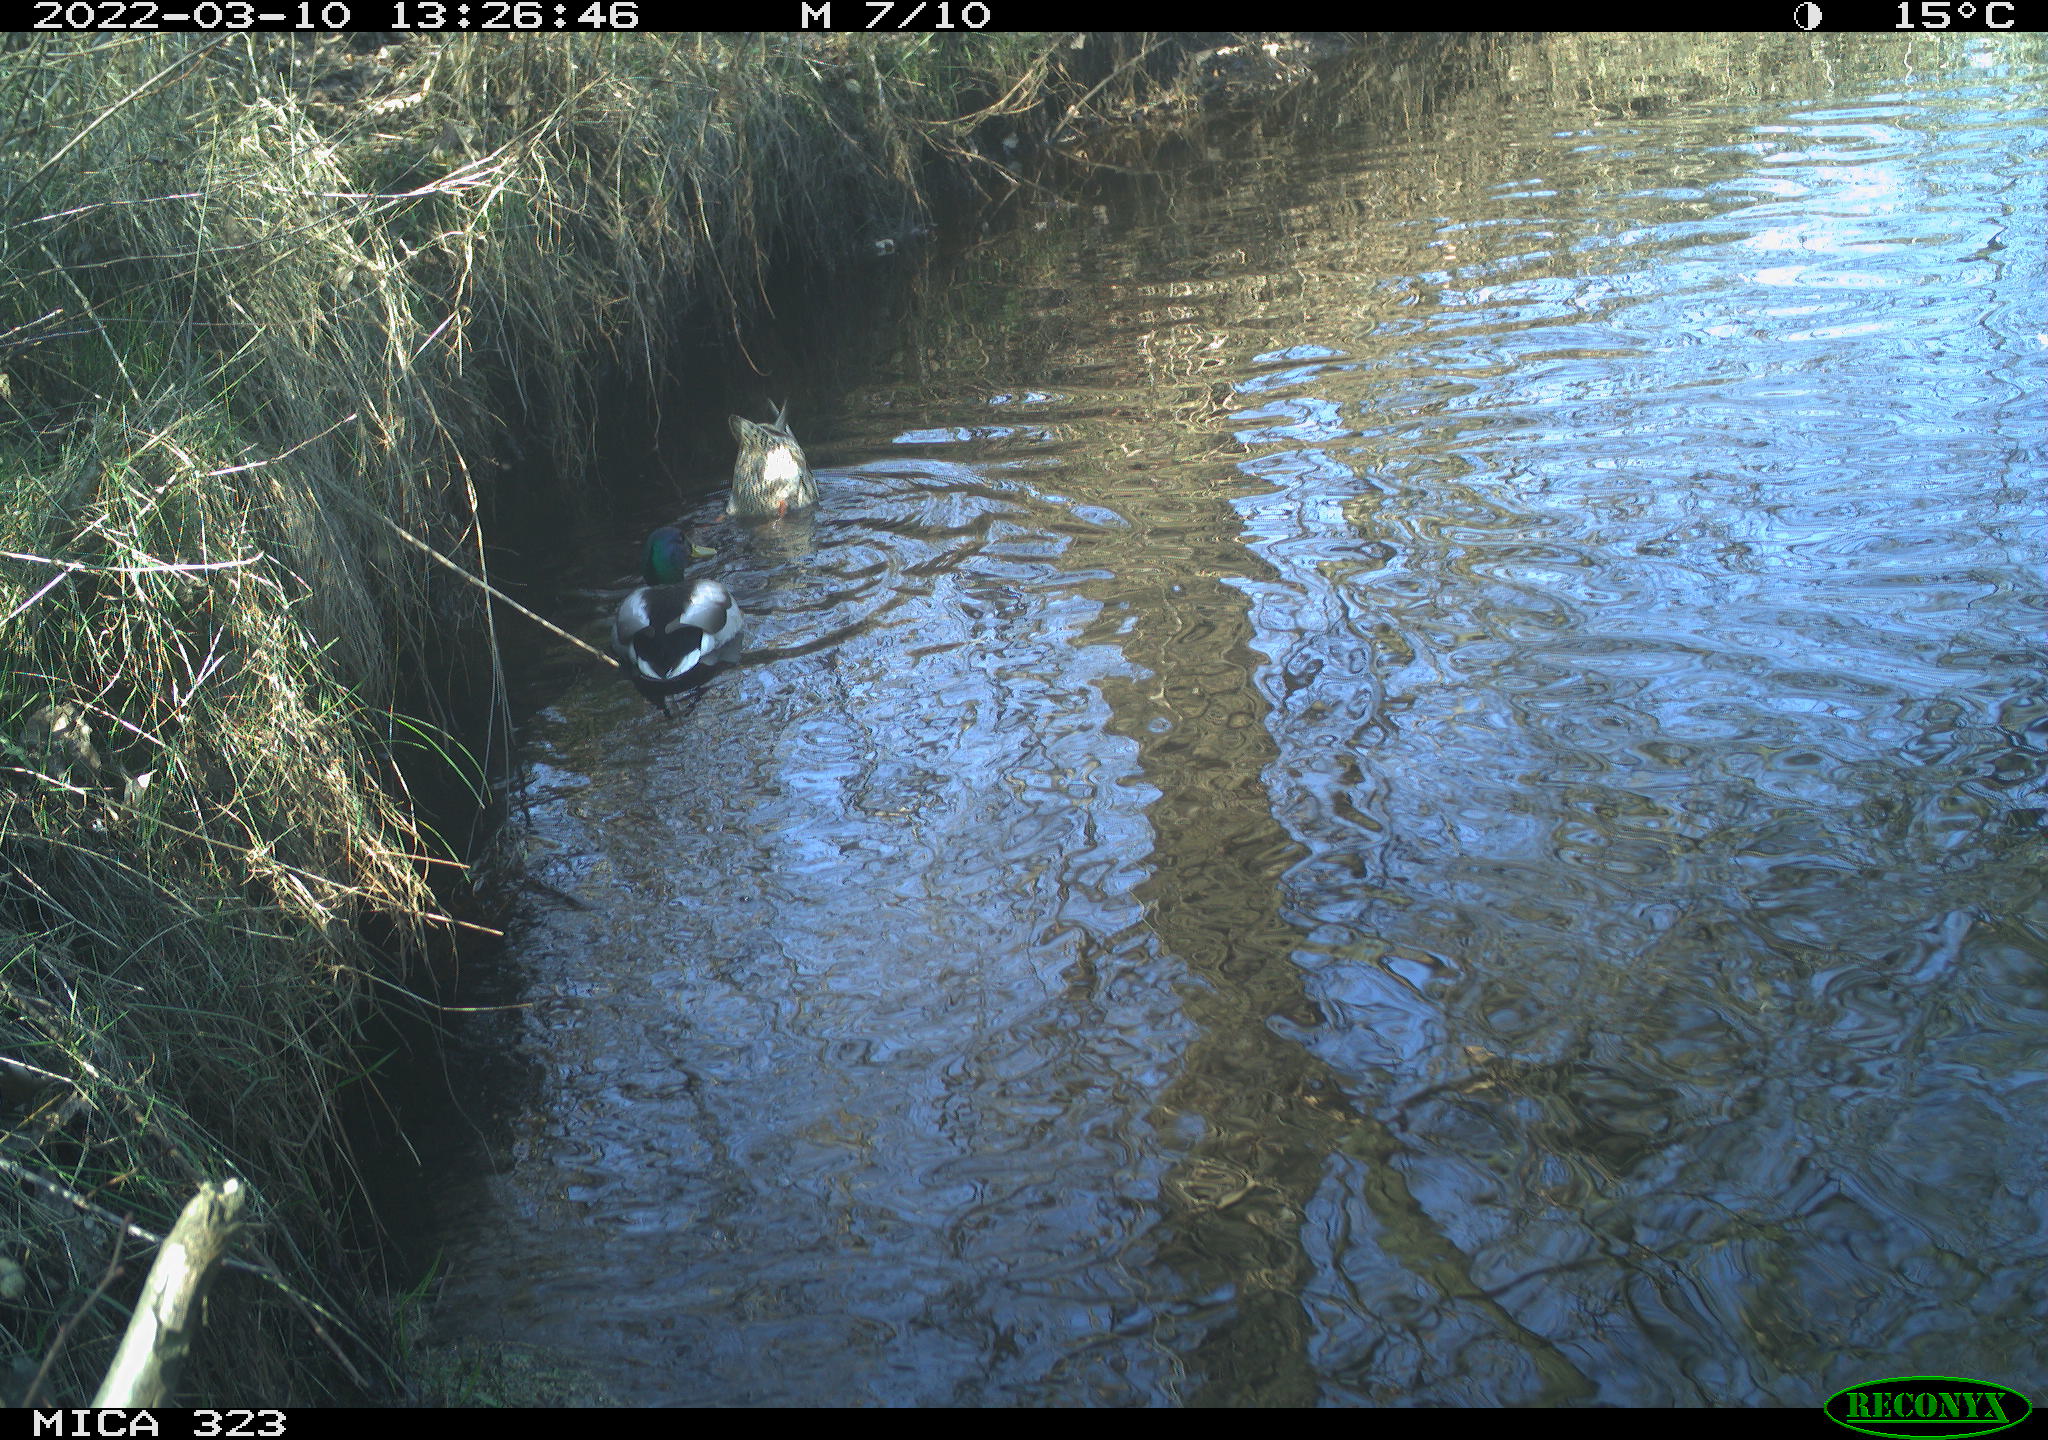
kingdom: Animalia
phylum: Chordata
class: Aves
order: Anseriformes
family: Anatidae
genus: Anas
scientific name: Anas platyrhynchos
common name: Mallard
